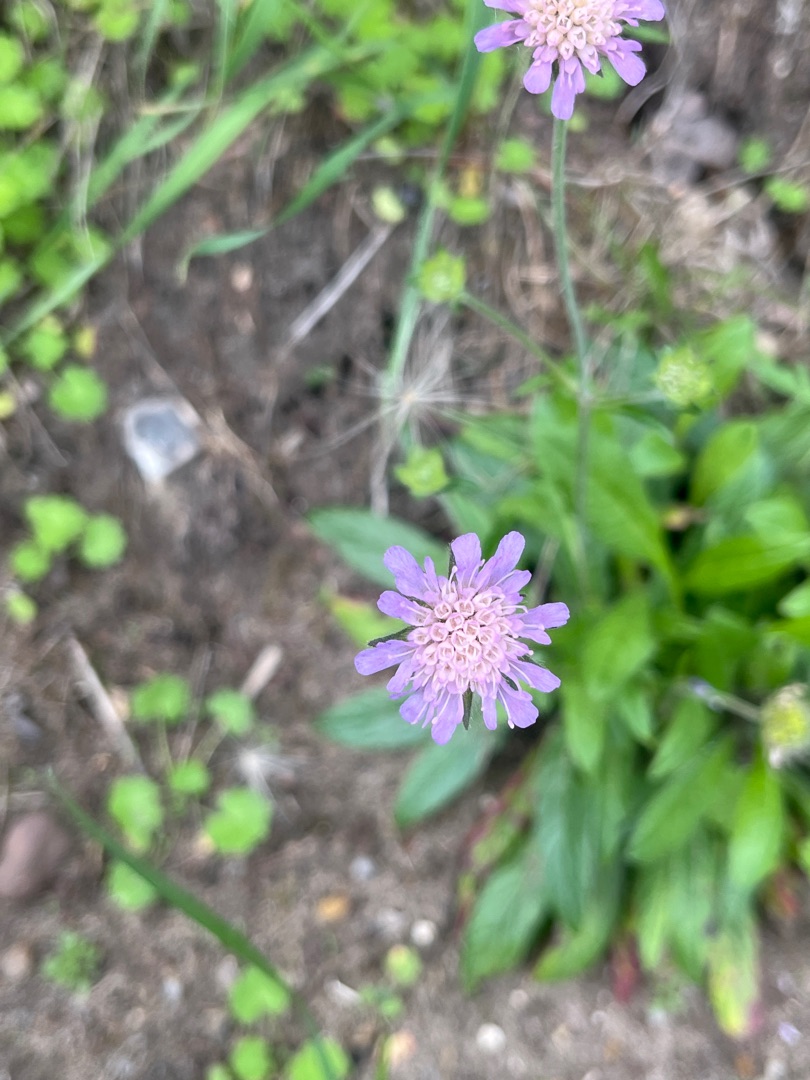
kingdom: Plantae
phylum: Tracheophyta
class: Magnoliopsida
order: Dipsacales
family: Caprifoliaceae
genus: Knautia
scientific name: Knautia arvensis
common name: Blåhat
